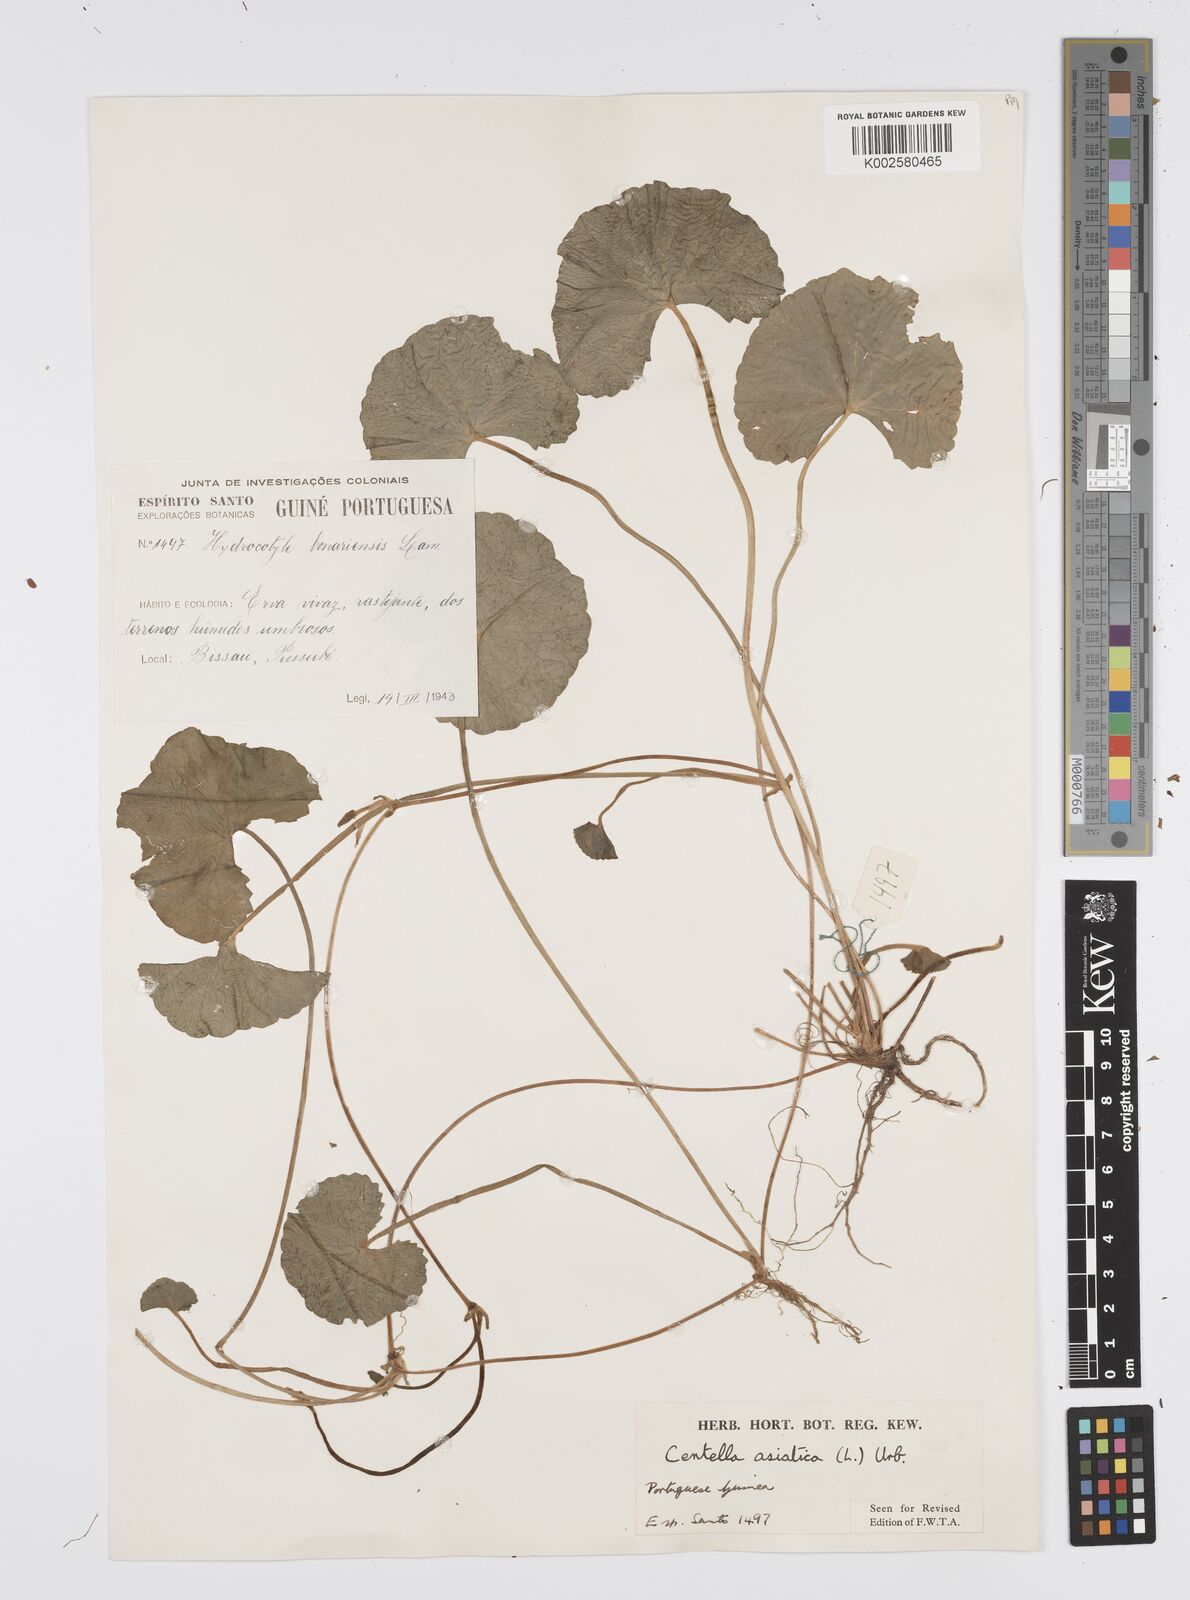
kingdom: Plantae
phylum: Tracheophyta
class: Magnoliopsida
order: Apiales
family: Apiaceae
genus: Centella
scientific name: Centella asiatica
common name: Spadeleaf
